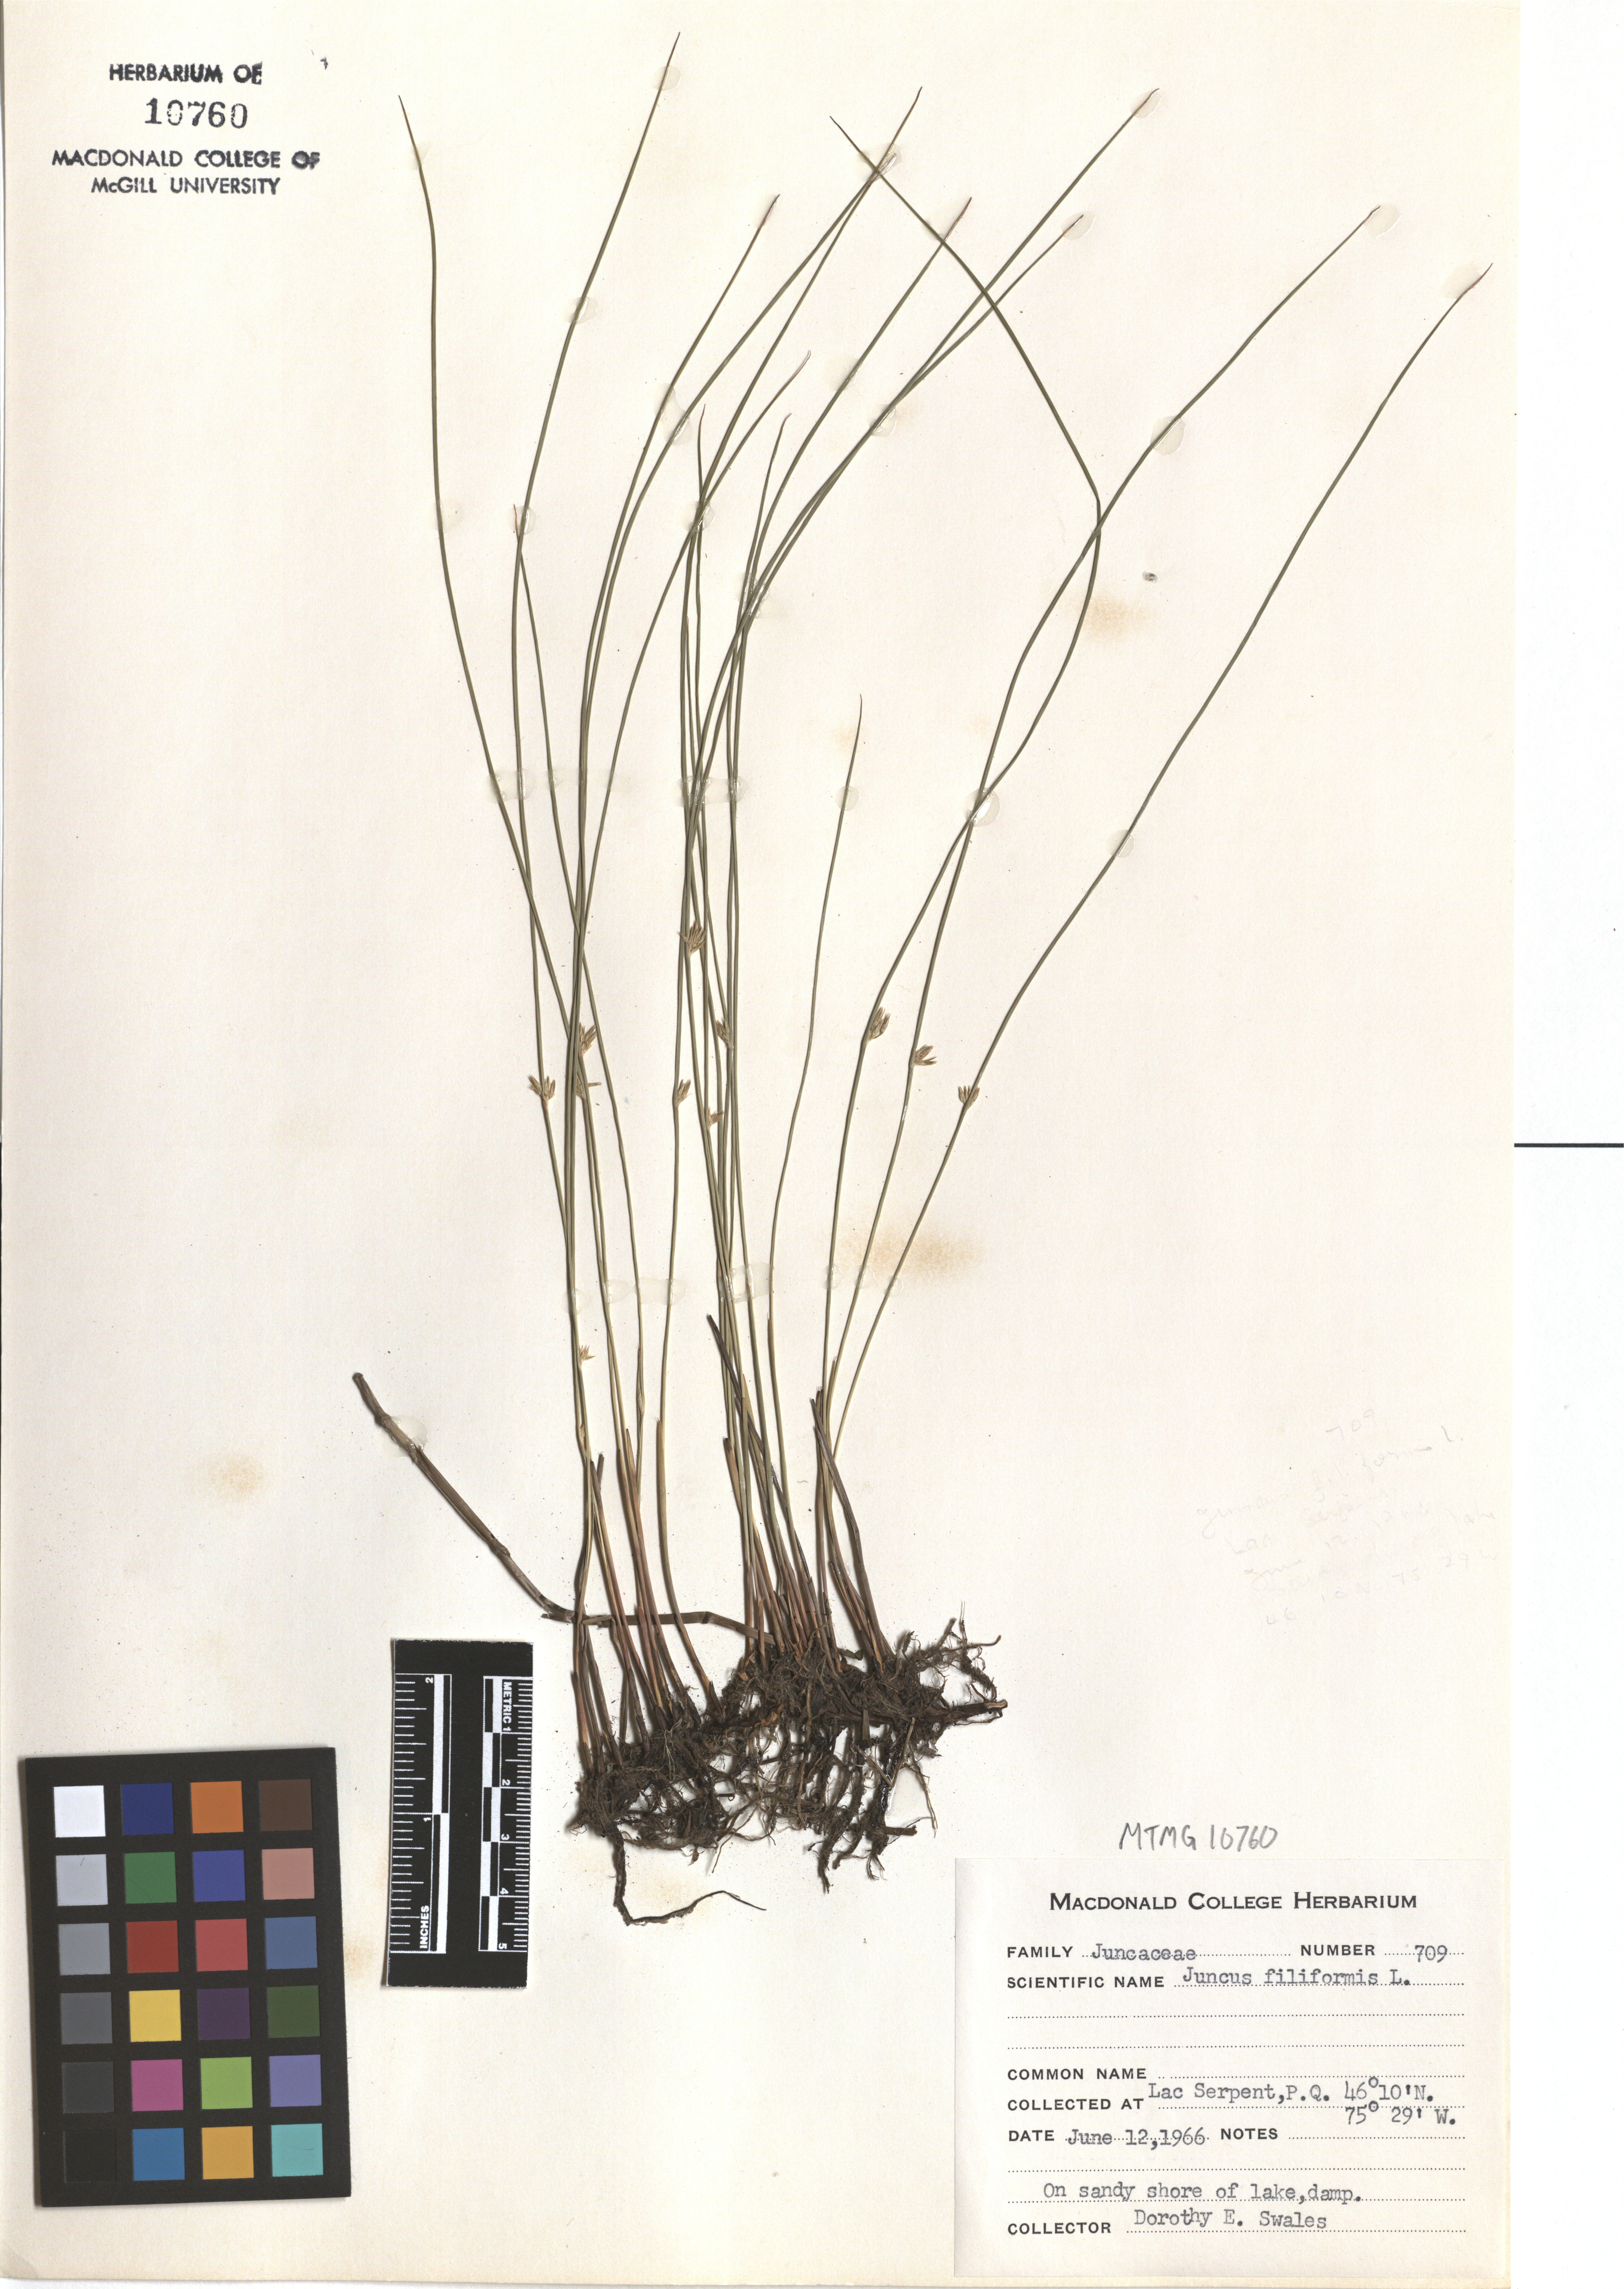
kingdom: Plantae
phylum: Tracheophyta
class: Liliopsida
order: Poales
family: Juncaceae
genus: Juncus
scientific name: Juncus filiformis
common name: Thread rush
